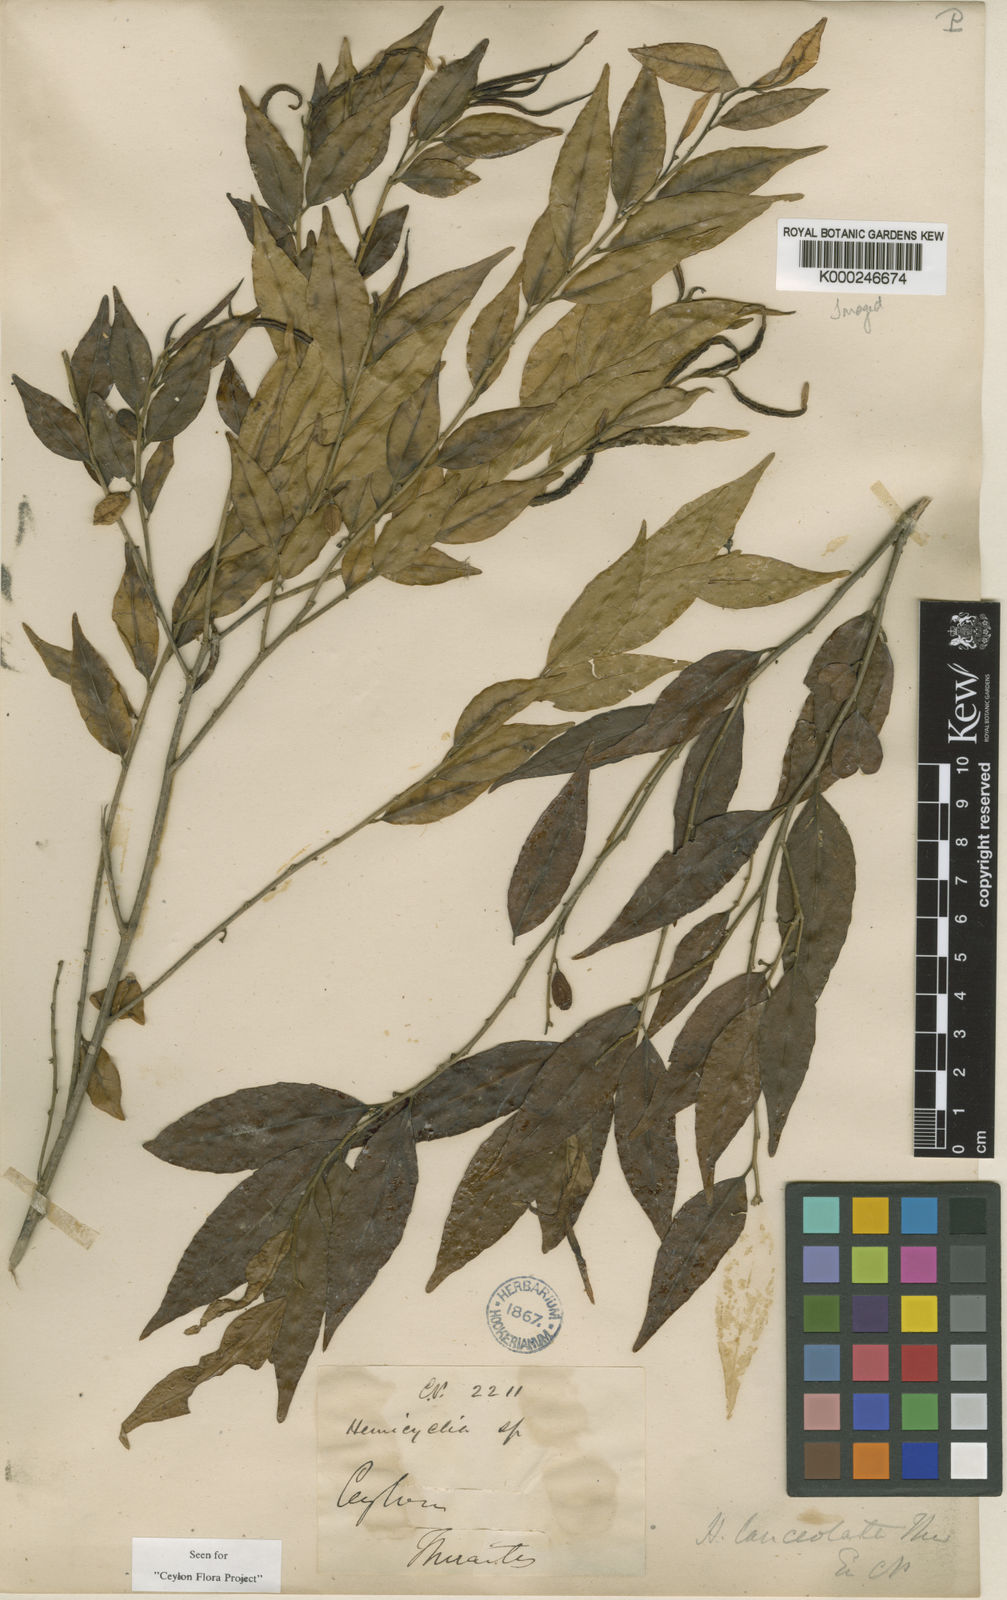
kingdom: Plantae
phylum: Tracheophyta
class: Magnoliopsida
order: Malpighiales
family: Putranjivaceae
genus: Drypetes
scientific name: Drypetes sumatrana
